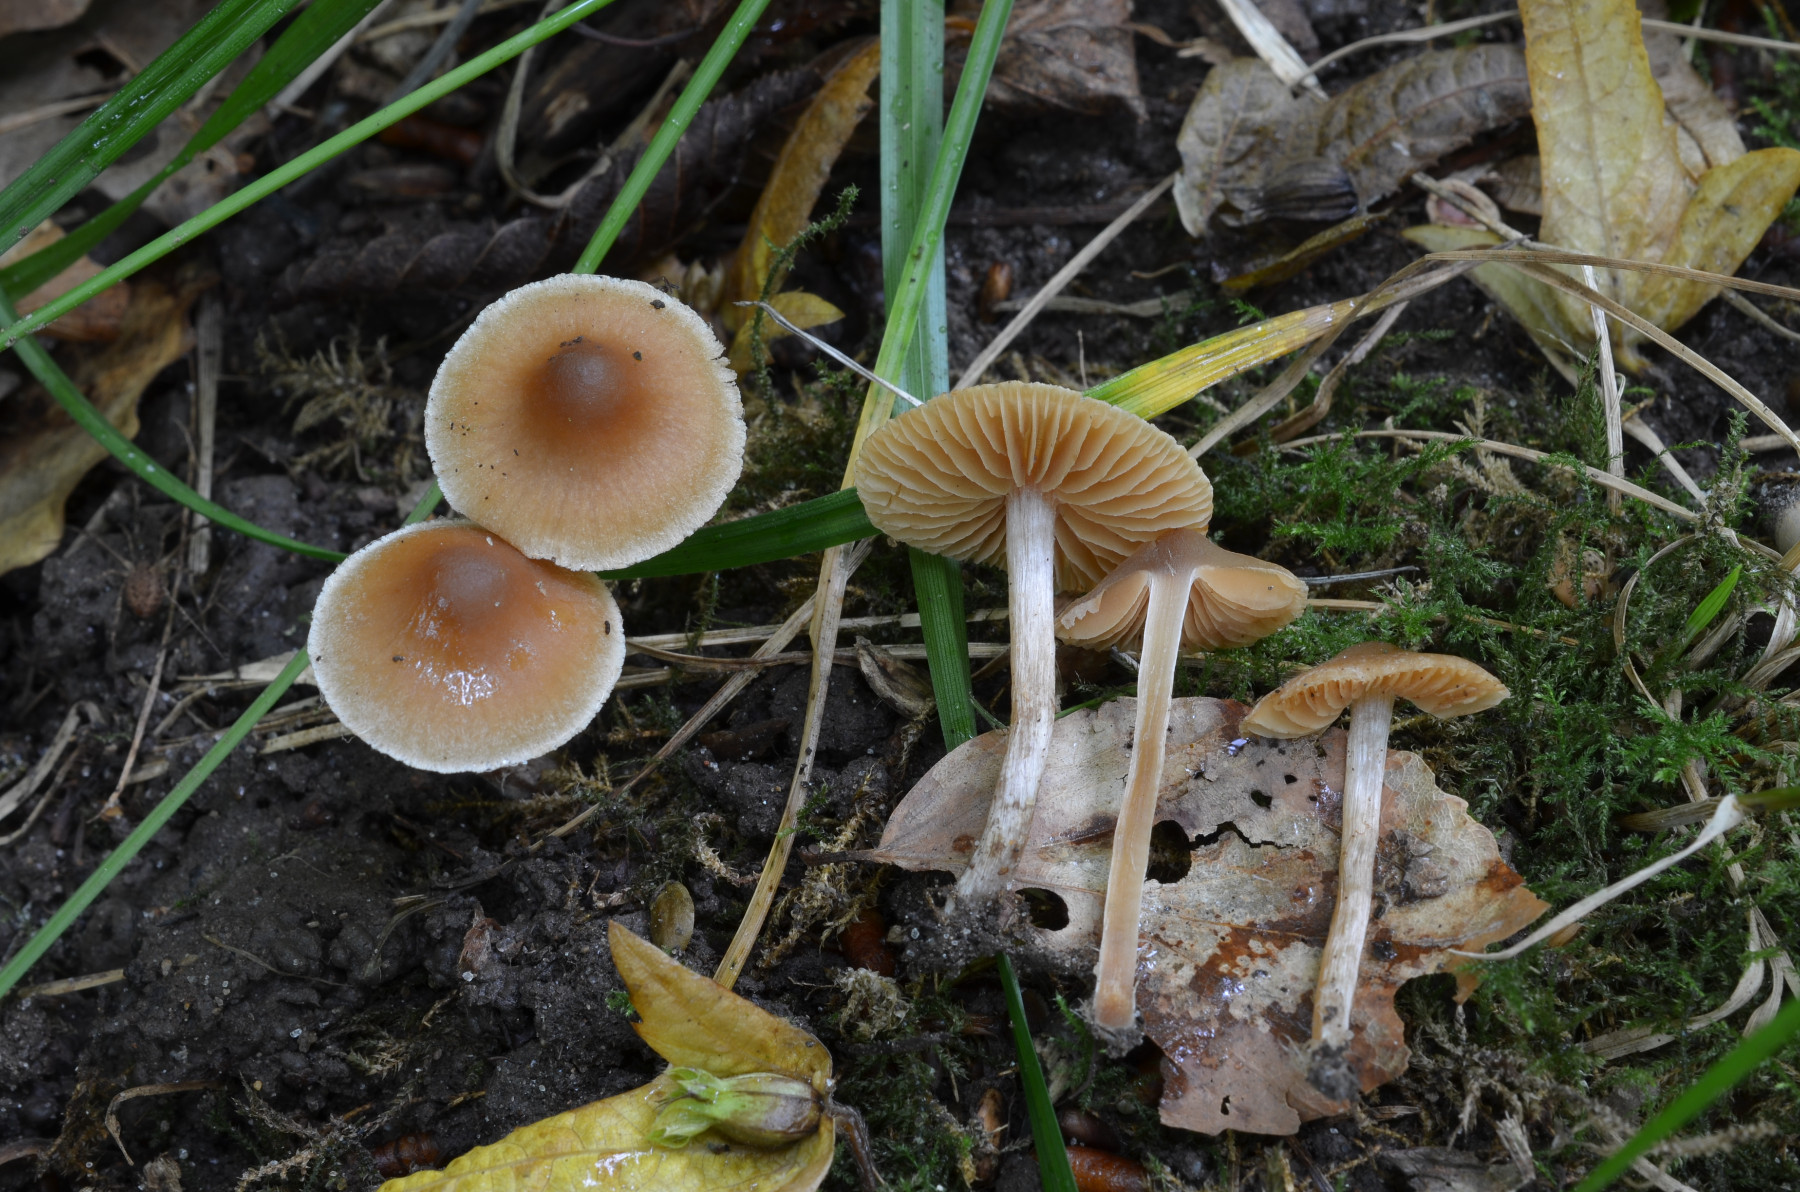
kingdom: Fungi
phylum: Basidiomycota
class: Agaricomycetes
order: Agaricales
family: Cortinariaceae
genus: Cortinarius
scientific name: Cortinarius incisior
